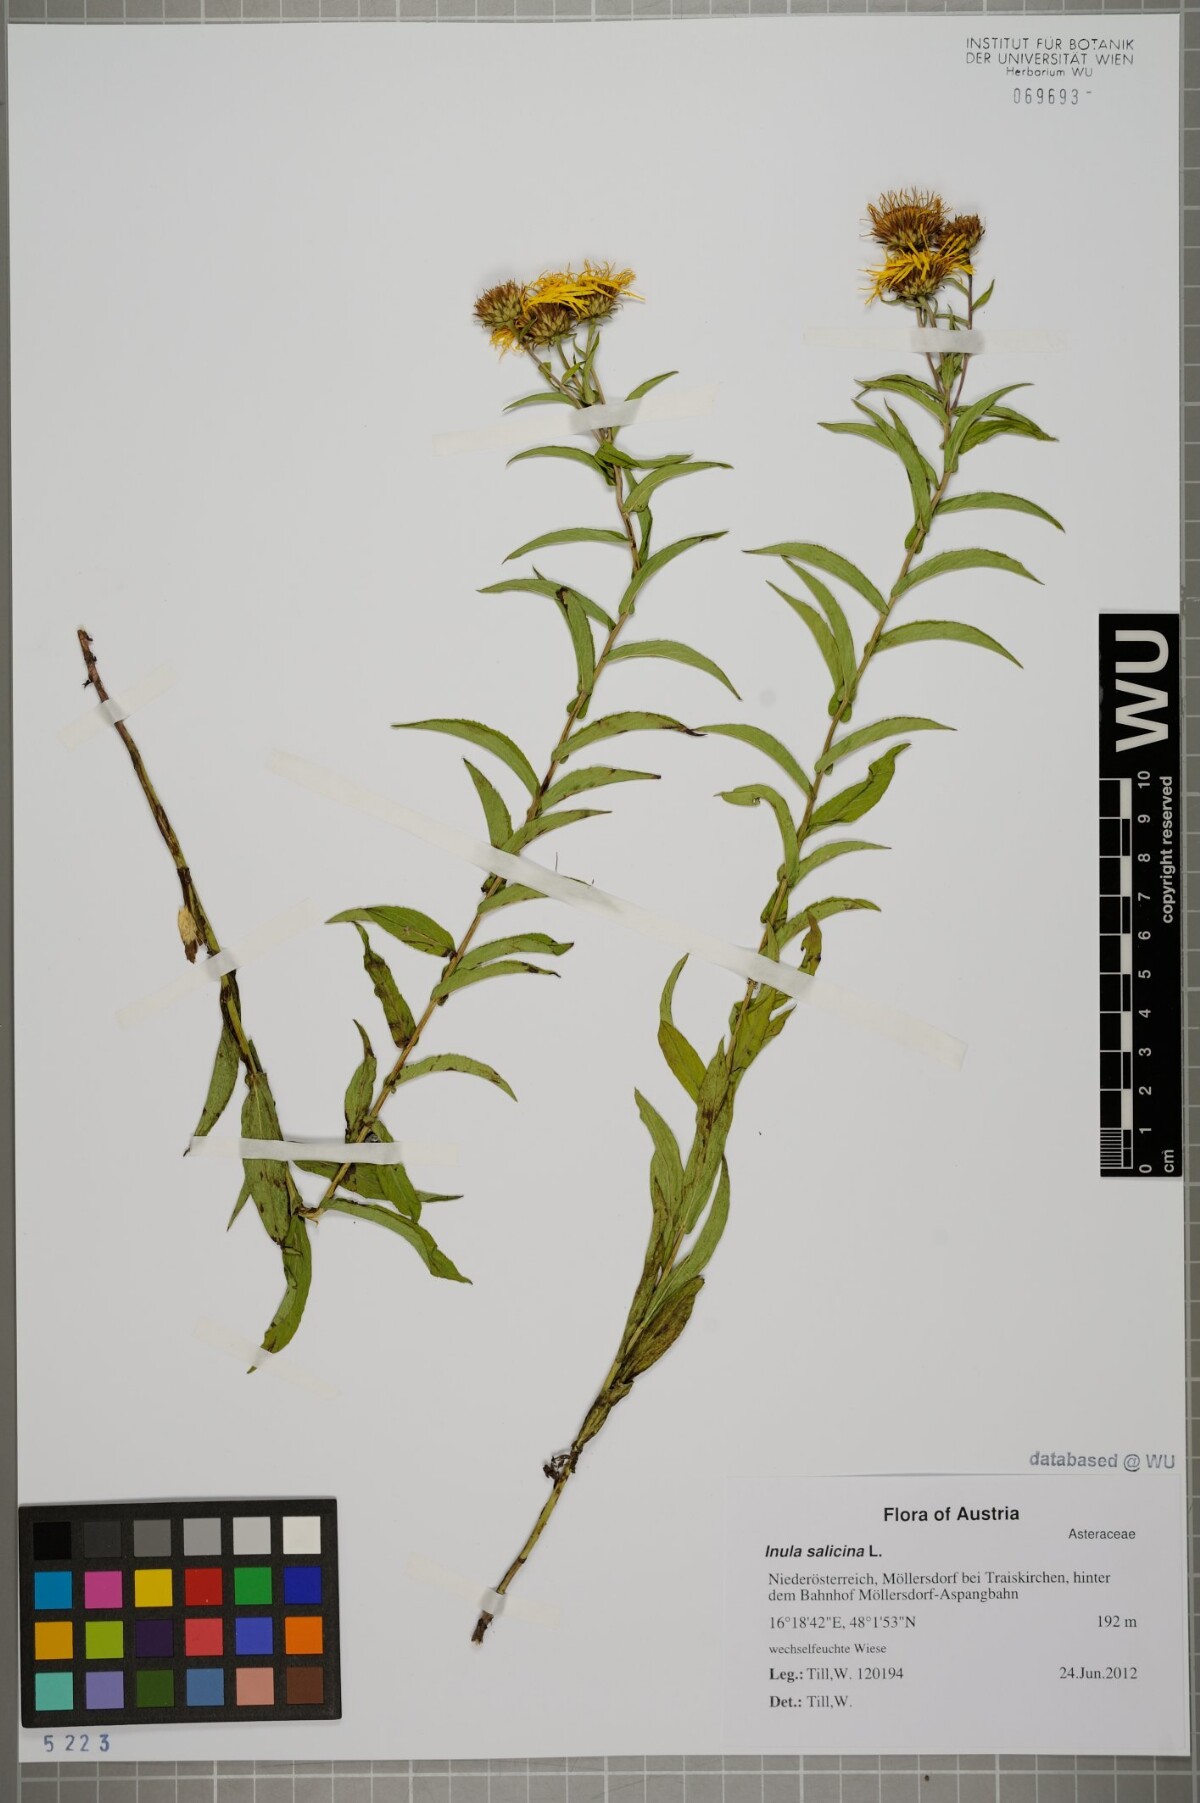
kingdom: Plantae
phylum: Tracheophyta
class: Magnoliopsida
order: Asterales
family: Asteraceae
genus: Pentanema
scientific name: Pentanema salicinum
